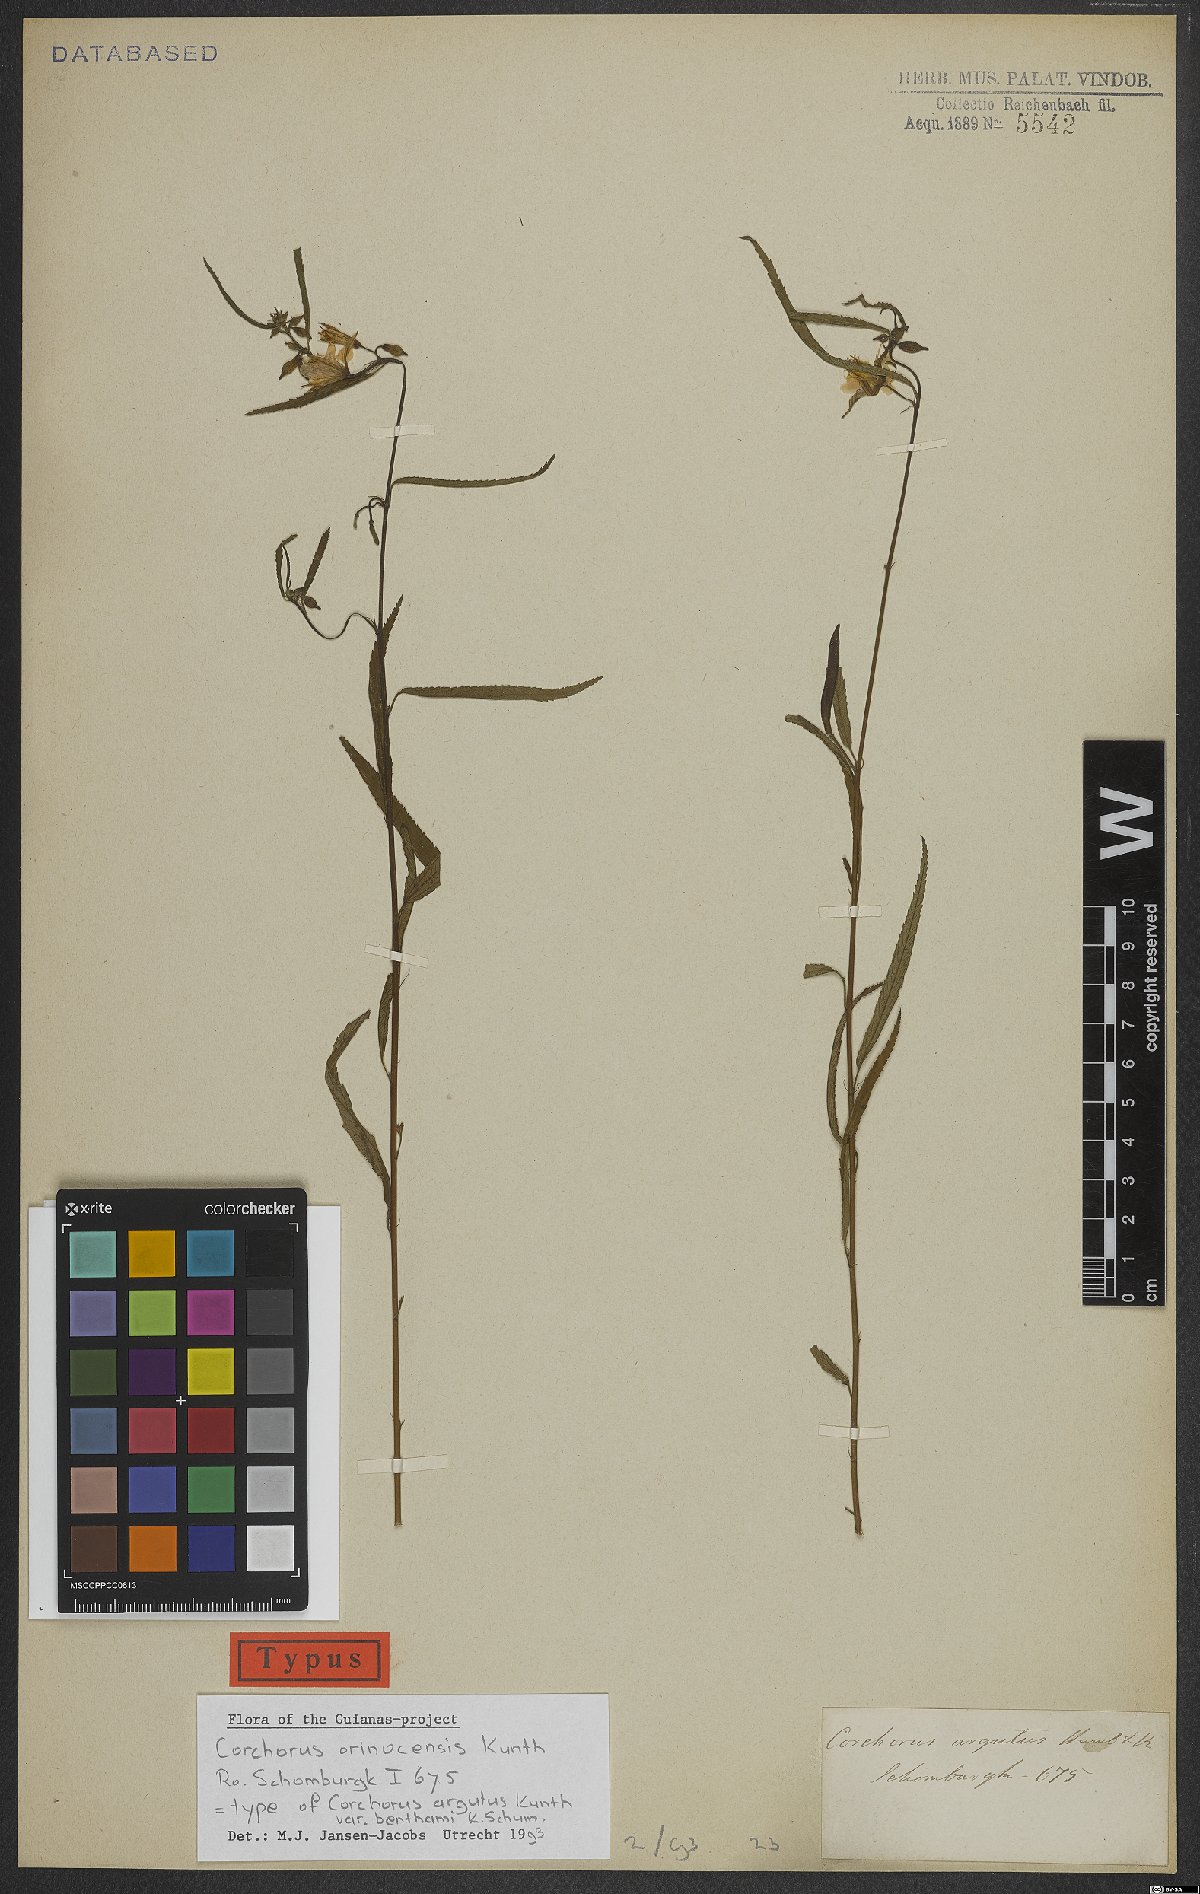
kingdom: Plantae
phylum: Tracheophyta
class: Magnoliopsida
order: Malvales
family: Malvaceae
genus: Corchorus
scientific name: Corchorus orinocensis
